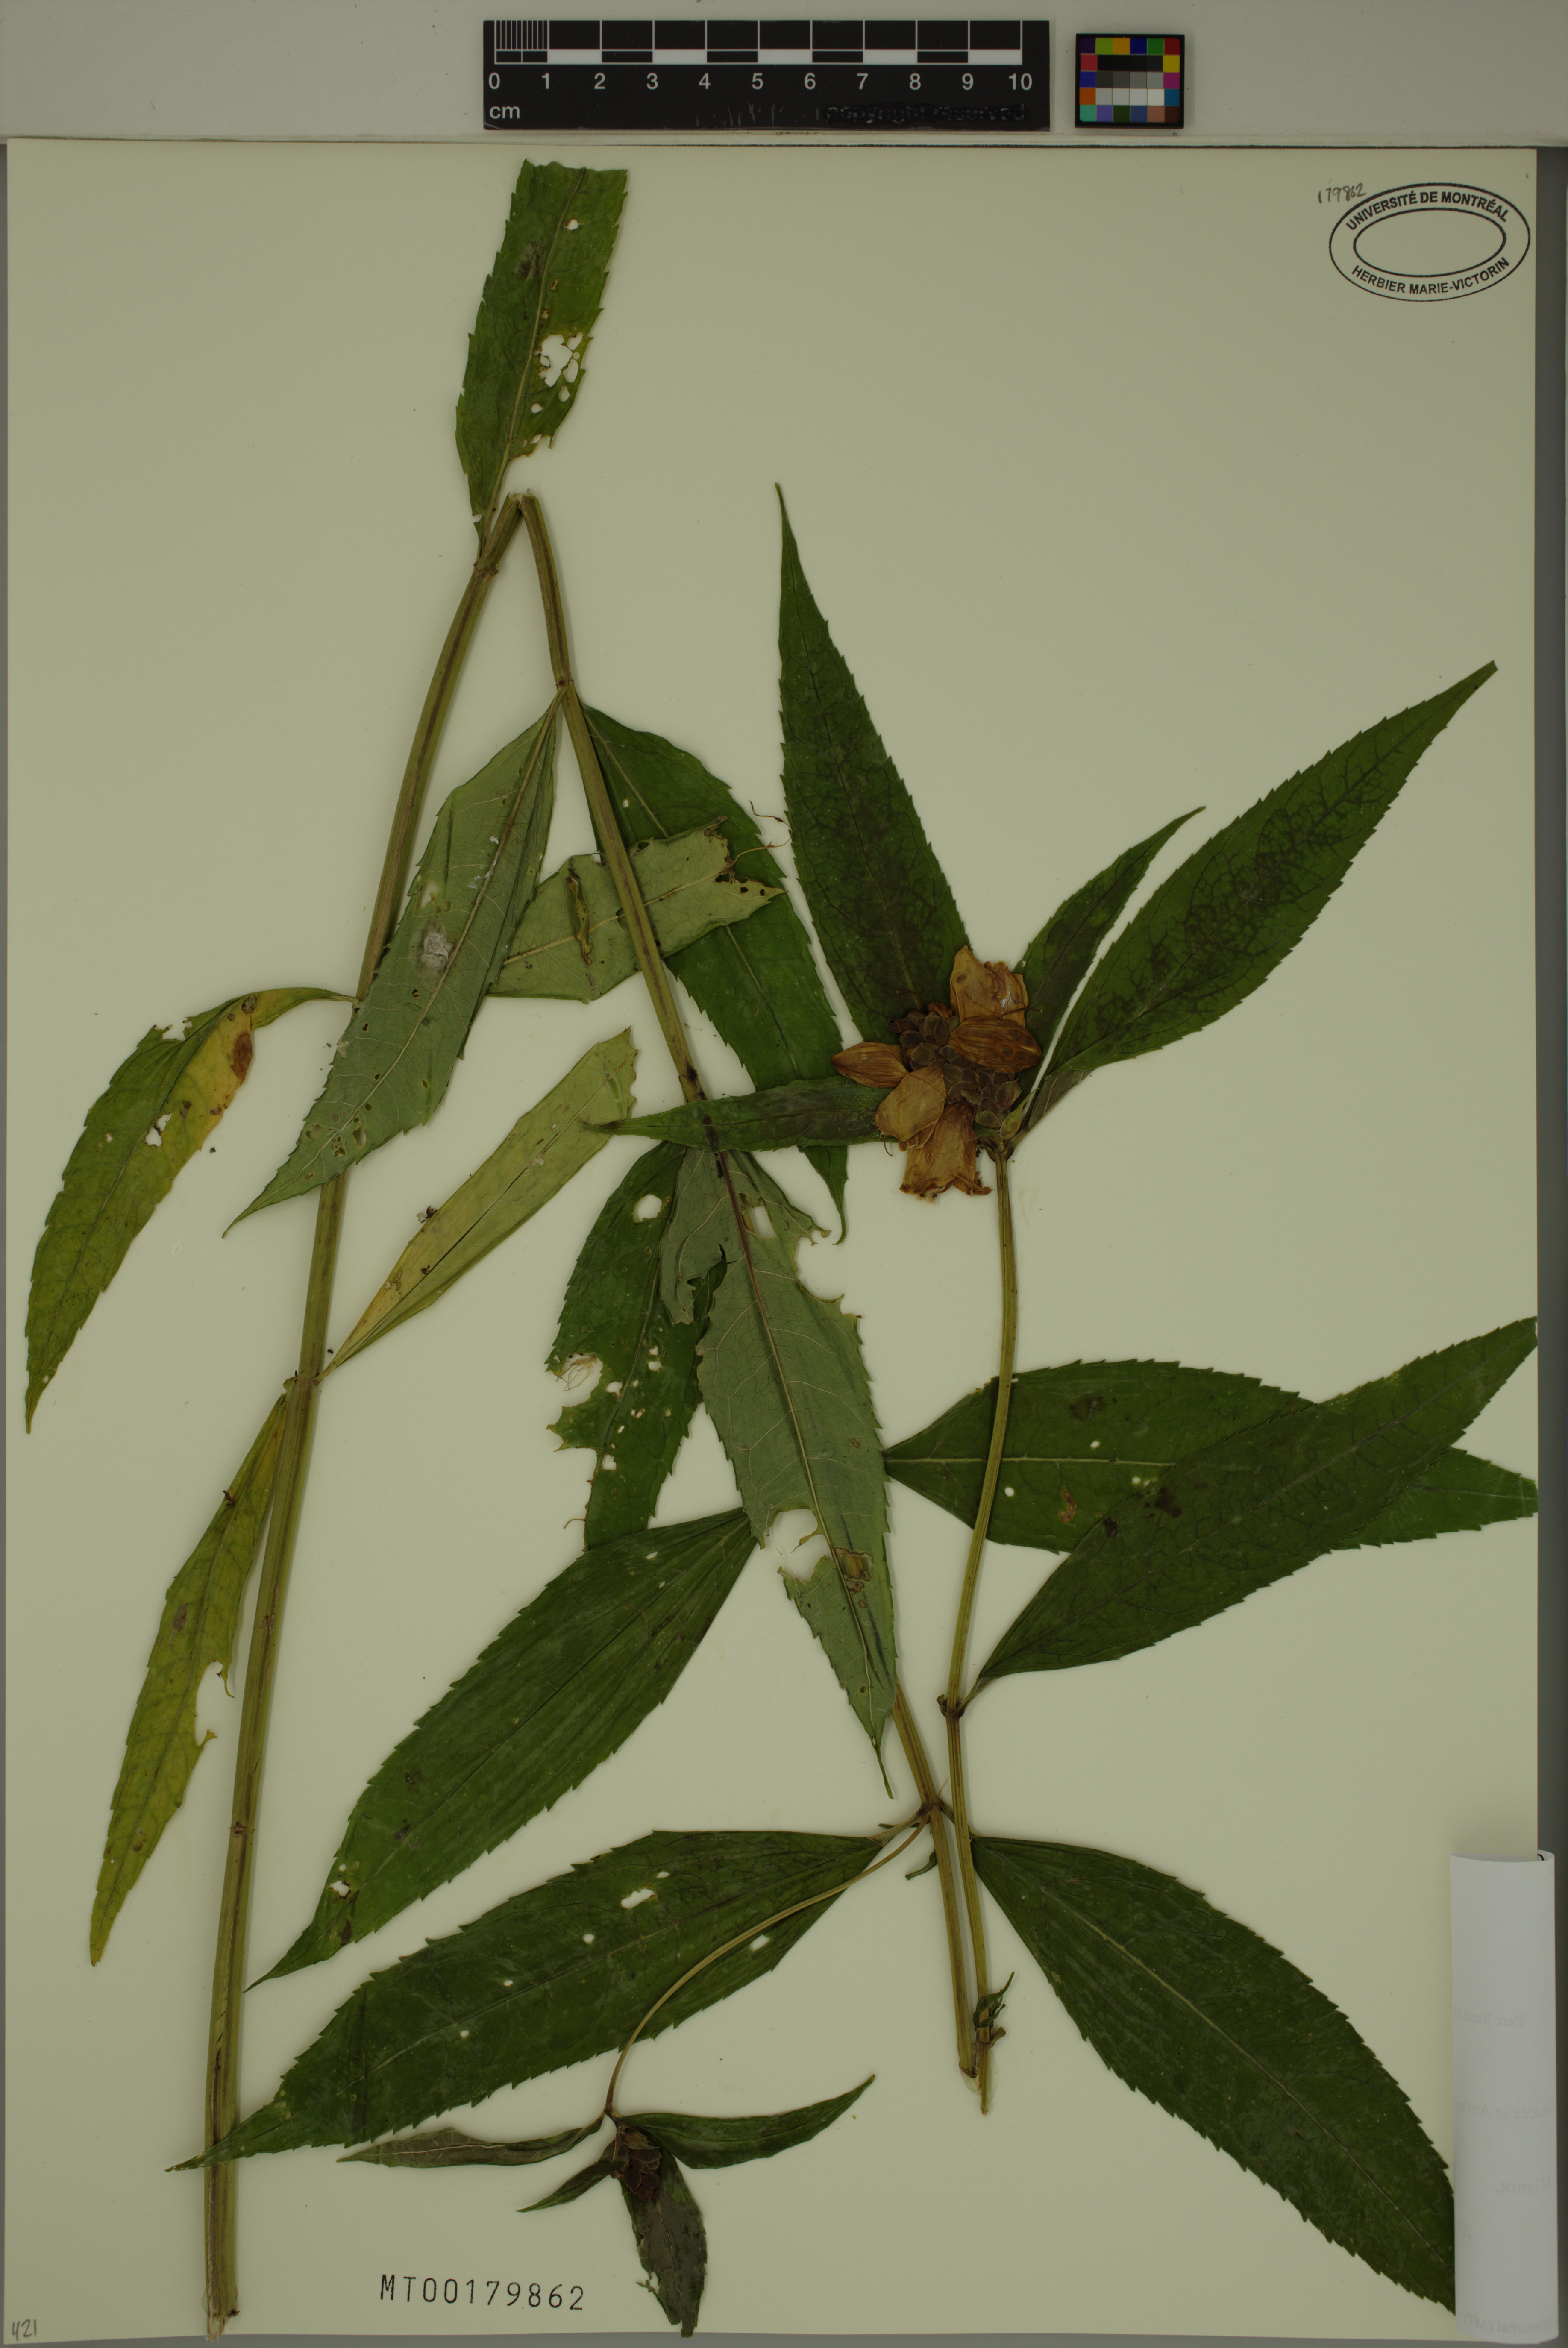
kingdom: Plantae
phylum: Tracheophyta
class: Magnoliopsida
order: Lamiales
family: Plantaginaceae
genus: Chelone
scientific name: Chelone glabra
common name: Snakehead
